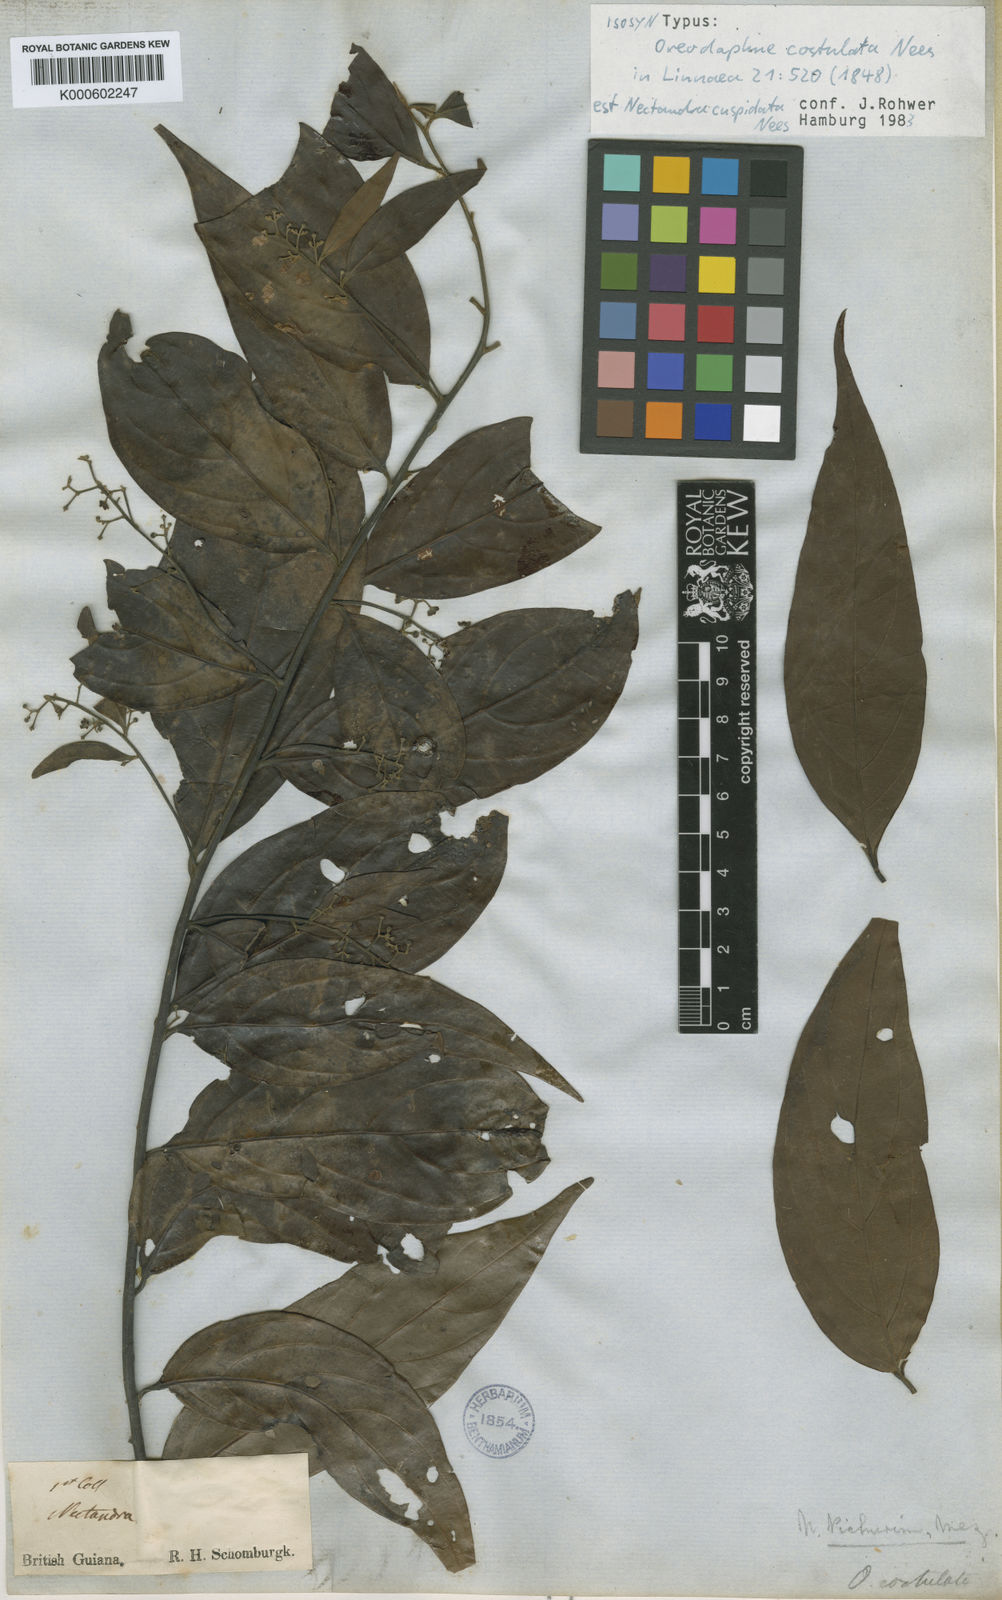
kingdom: Plantae
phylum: Tracheophyta
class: Magnoliopsida
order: Laurales
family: Lauraceae
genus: Ocotea
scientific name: Ocotea aciphylla
